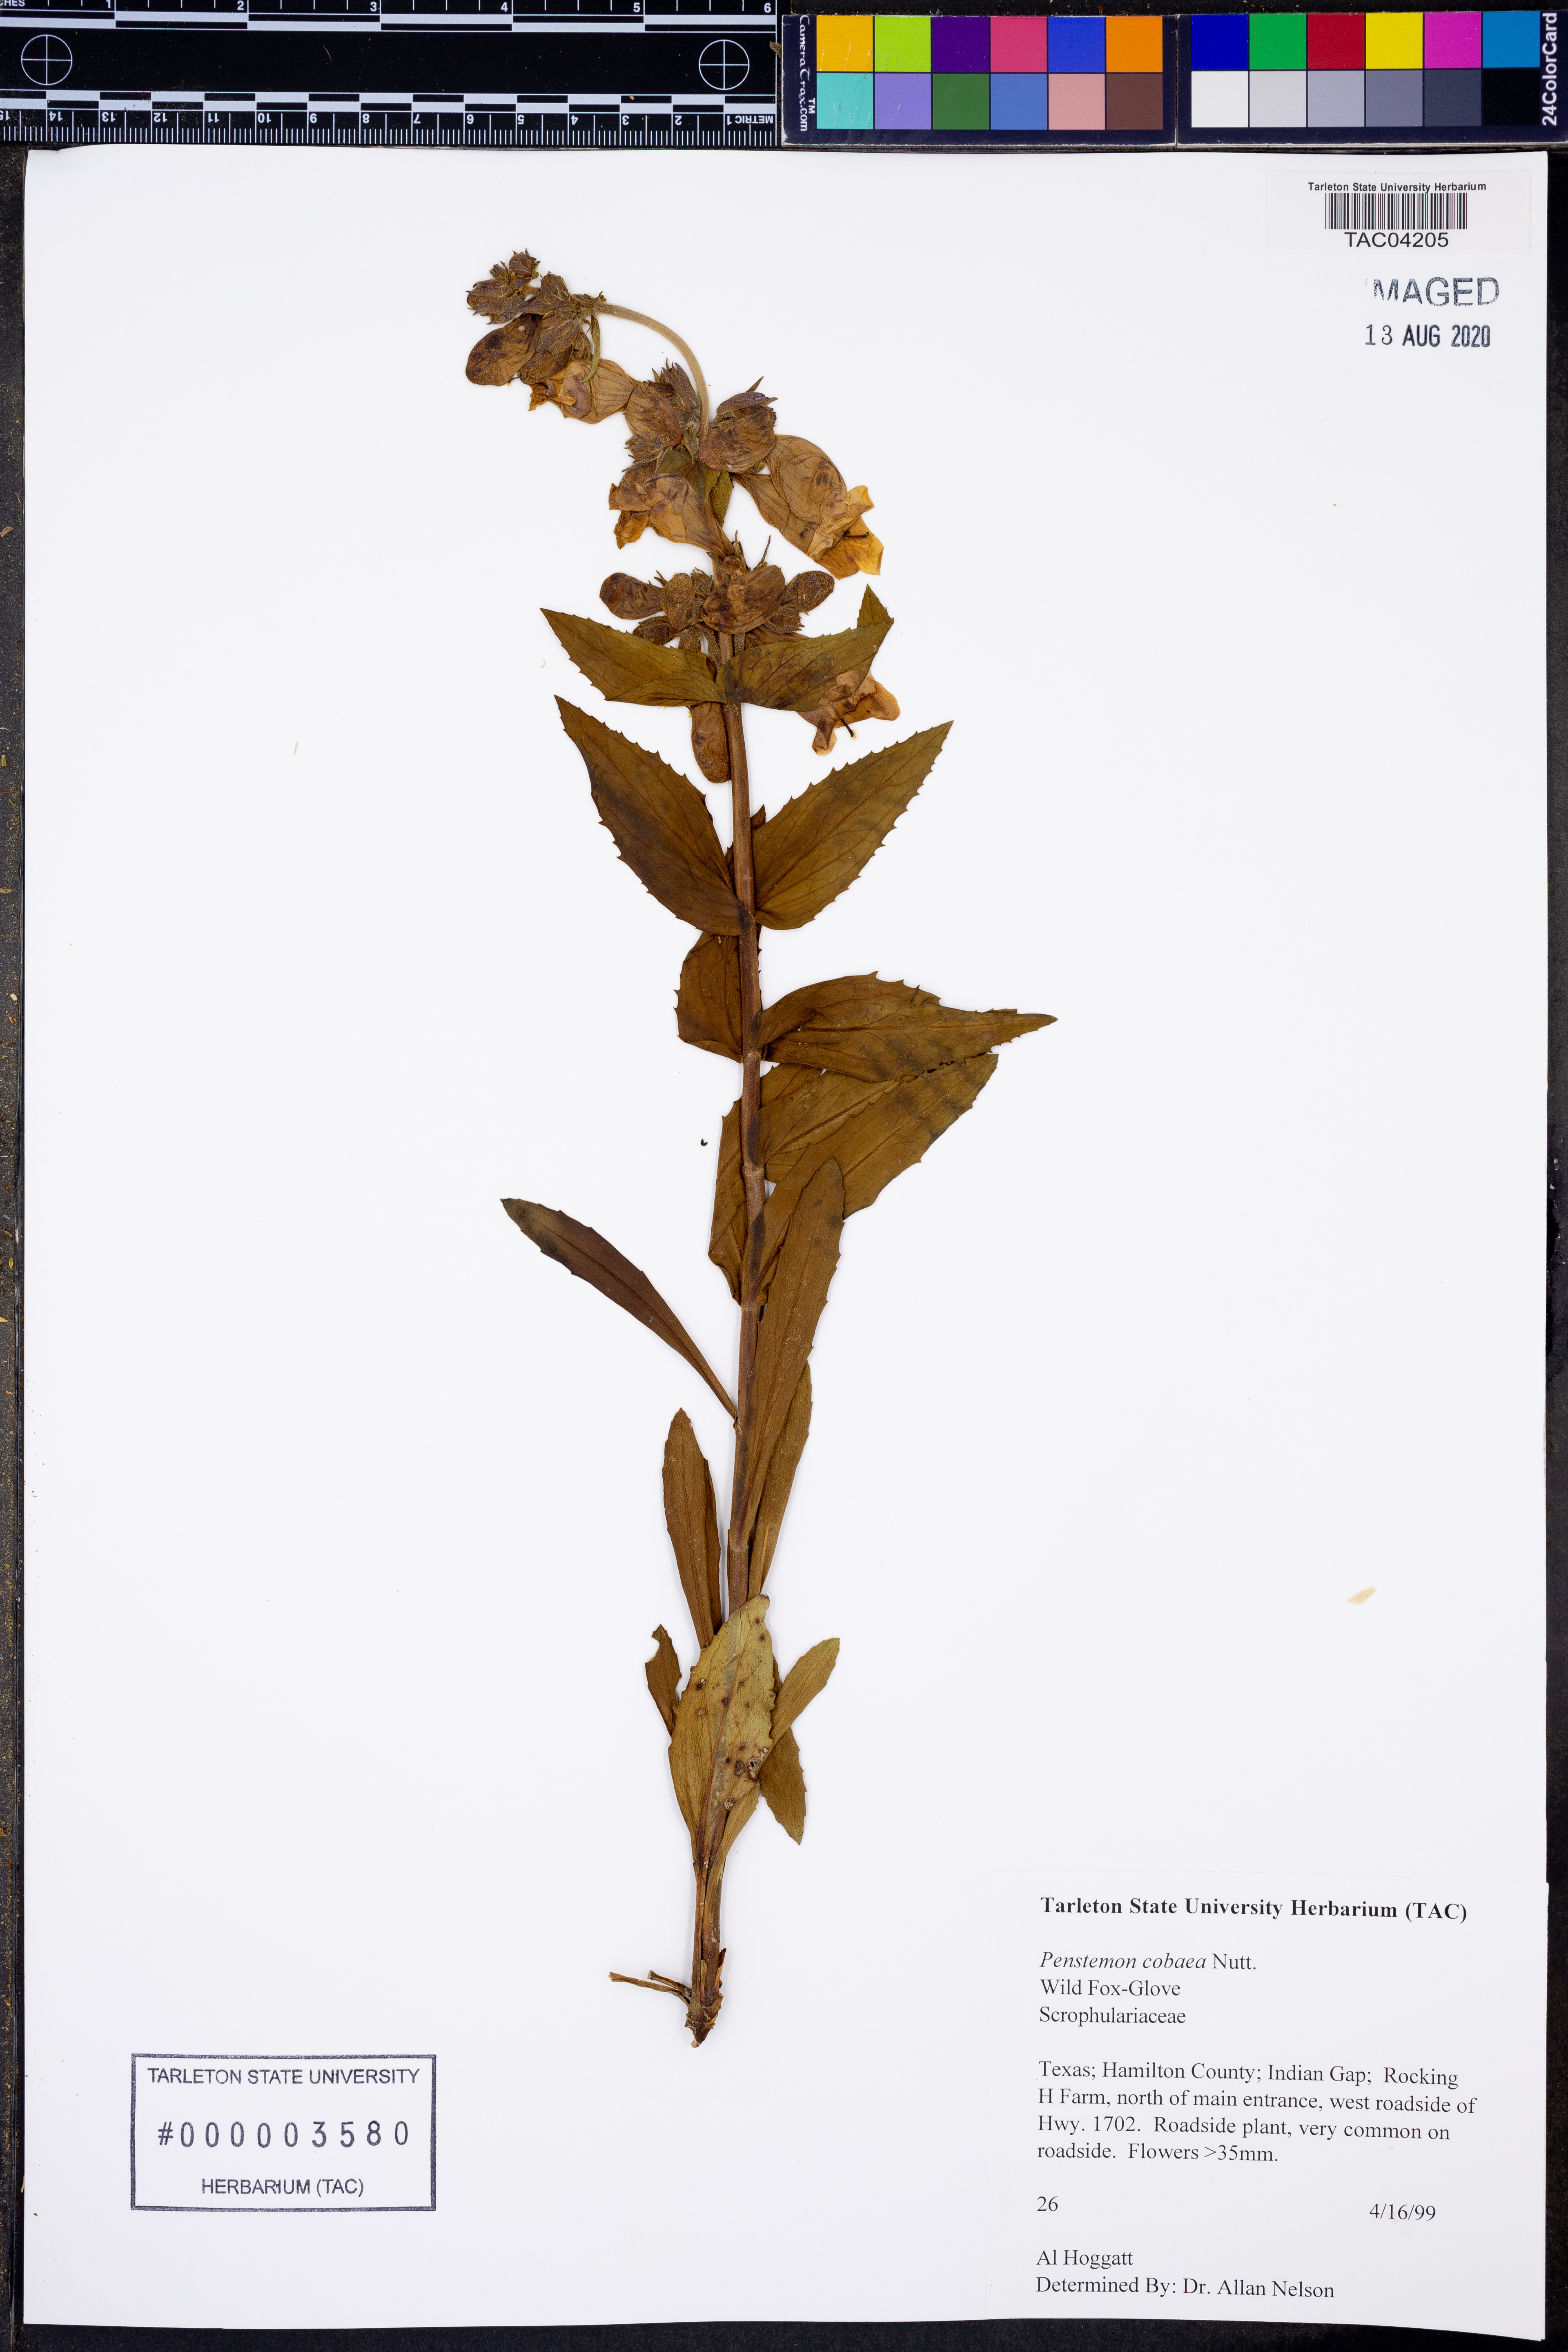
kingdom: Plantae
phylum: Tracheophyta
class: Magnoliopsida
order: Lamiales
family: Plantaginaceae
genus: Penstemon
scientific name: Penstemon cobaea
